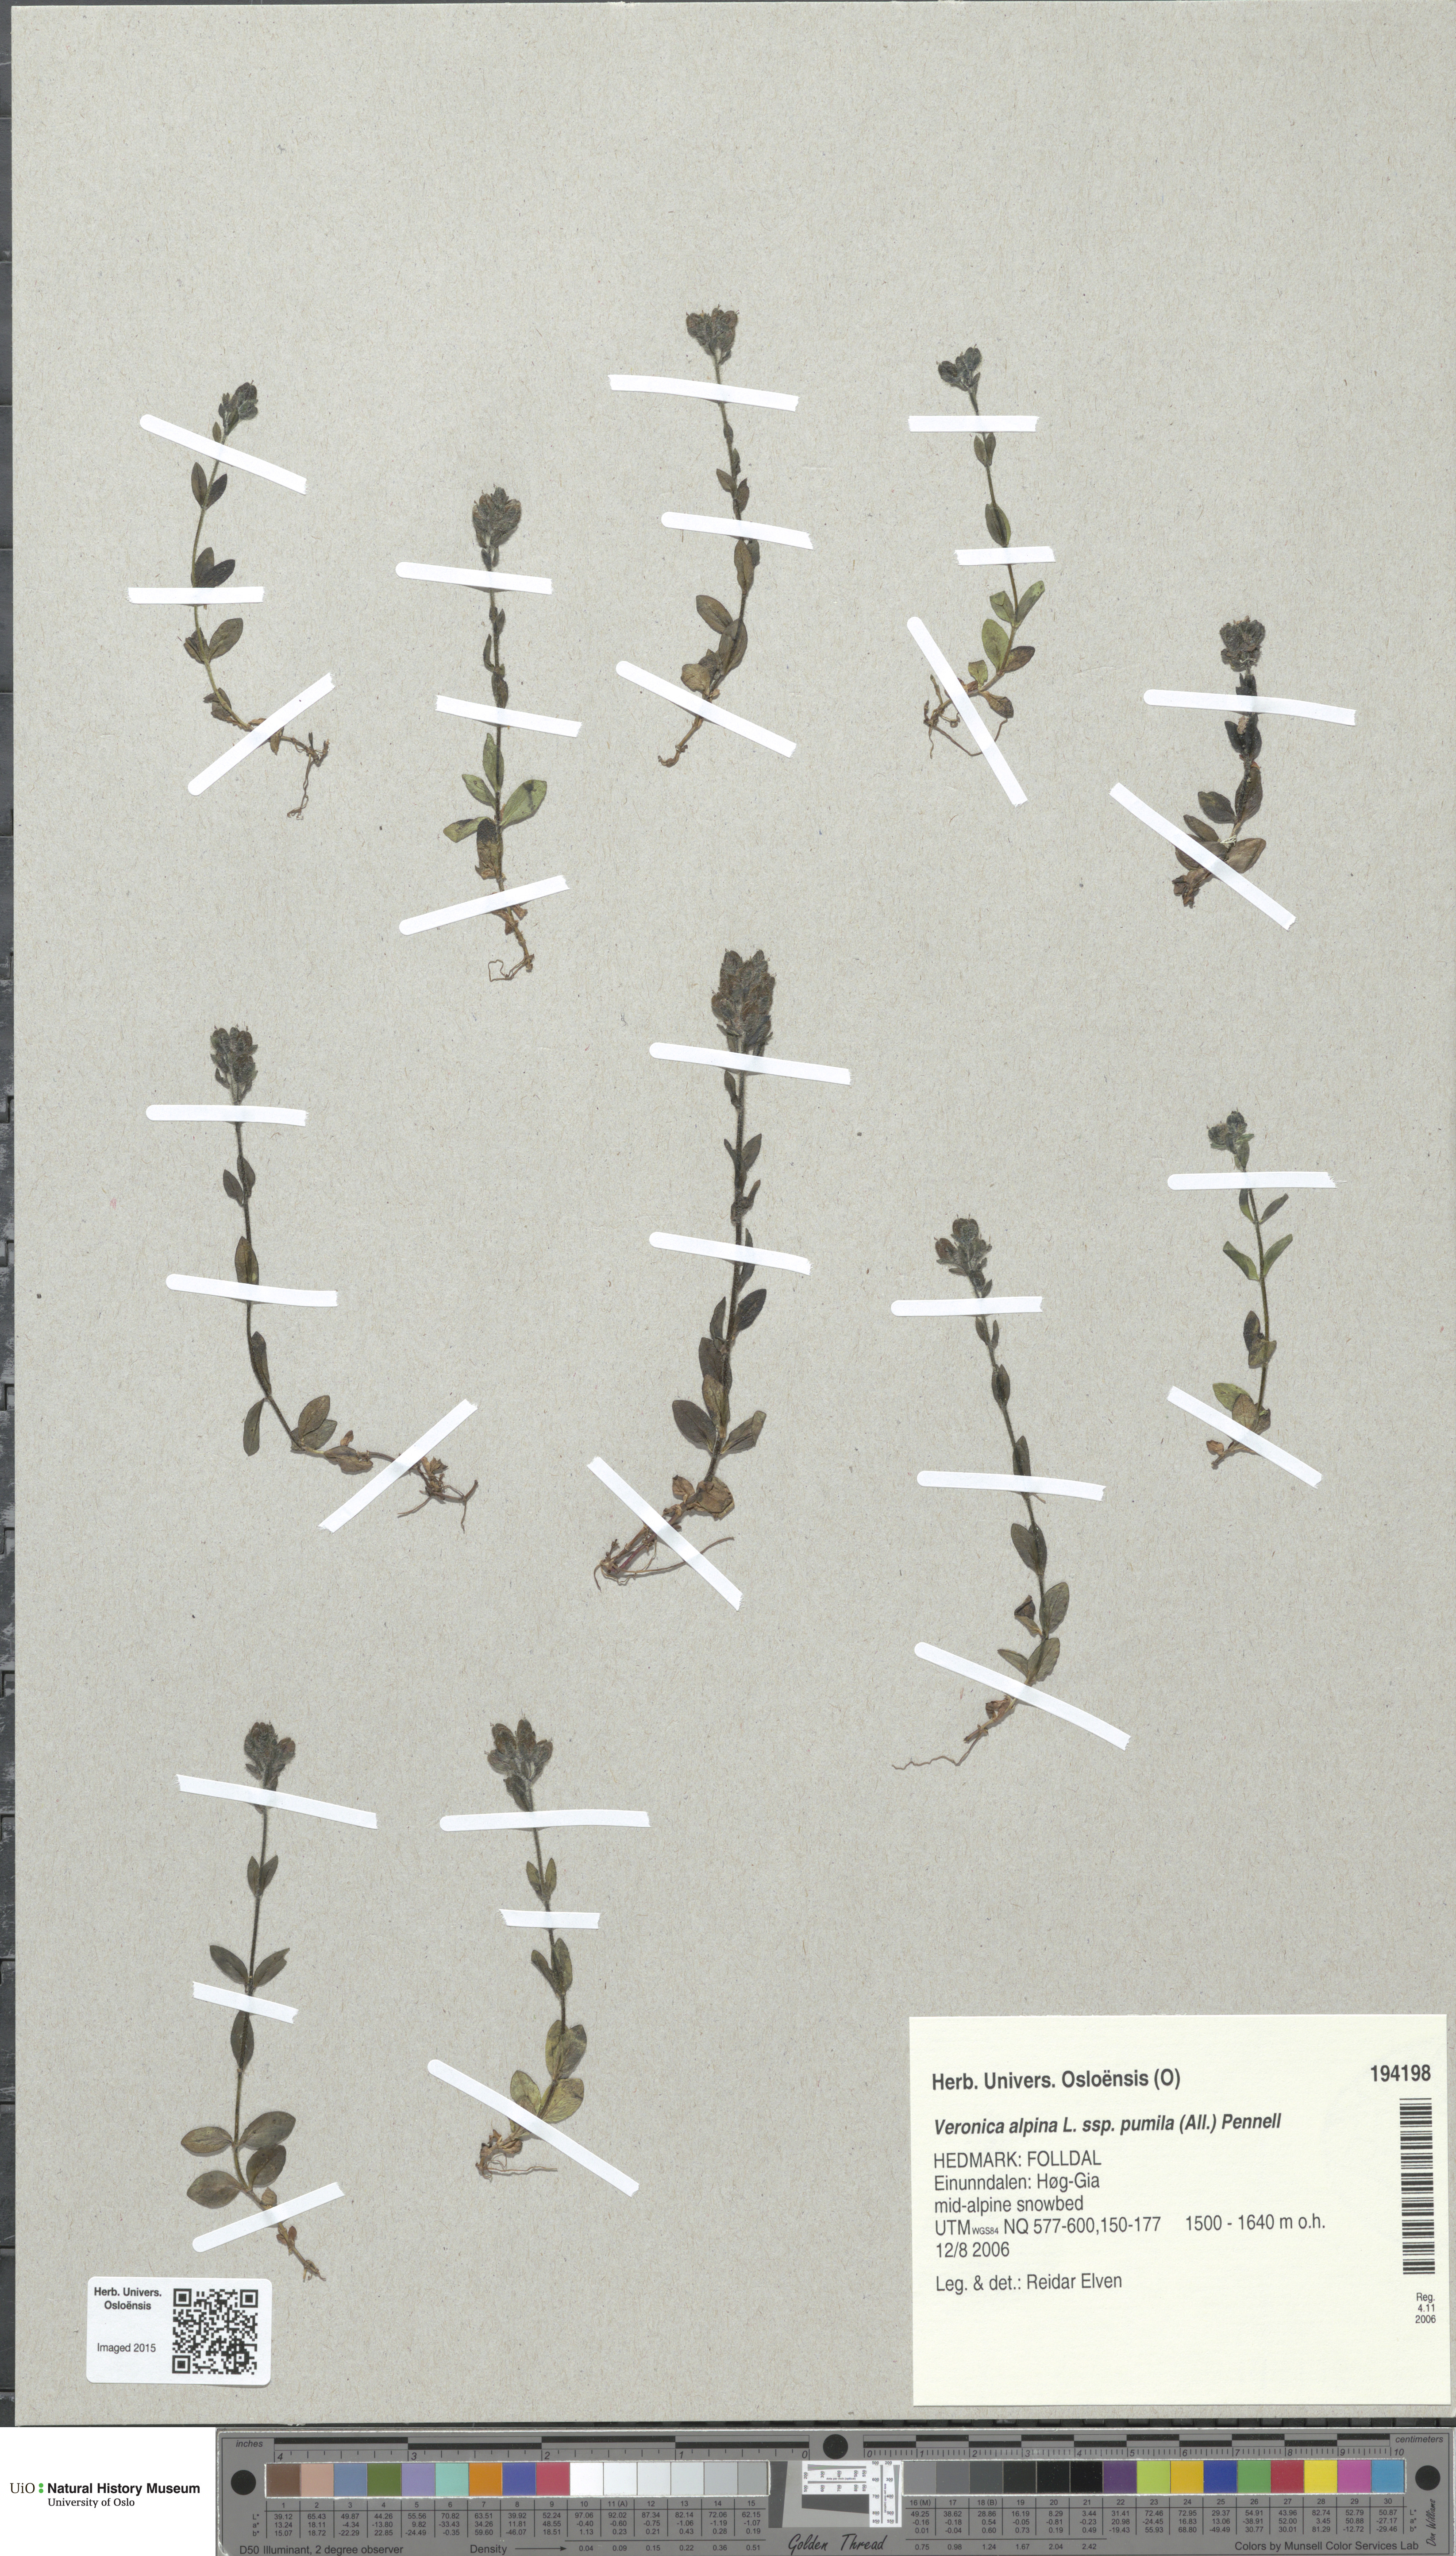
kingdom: Plantae
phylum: Tracheophyta
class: Magnoliopsida
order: Lamiales
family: Plantaginaceae
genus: Veronica
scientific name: Veronica alpina
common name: Alpine speedwell
